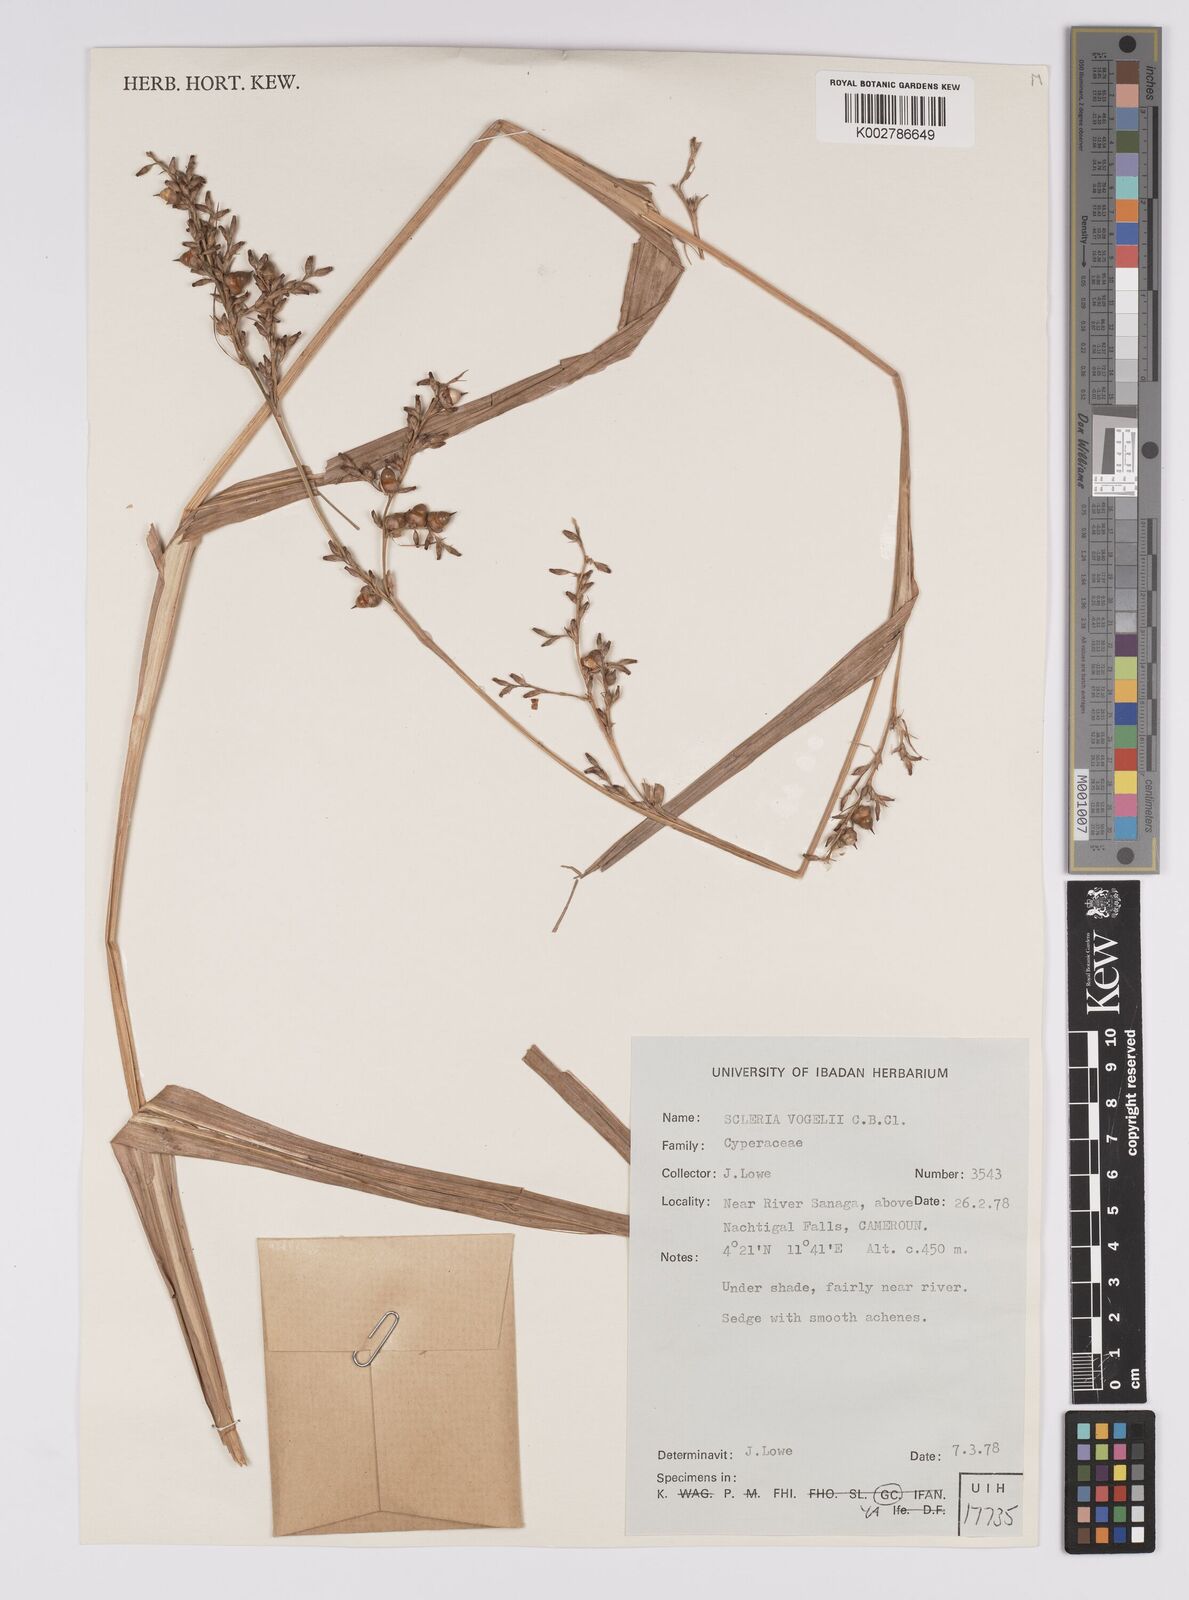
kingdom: Plantae
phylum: Tracheophyta
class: Liliopsida
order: Poales
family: Cyperaceae
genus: Scleria
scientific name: Scleria racemosa
